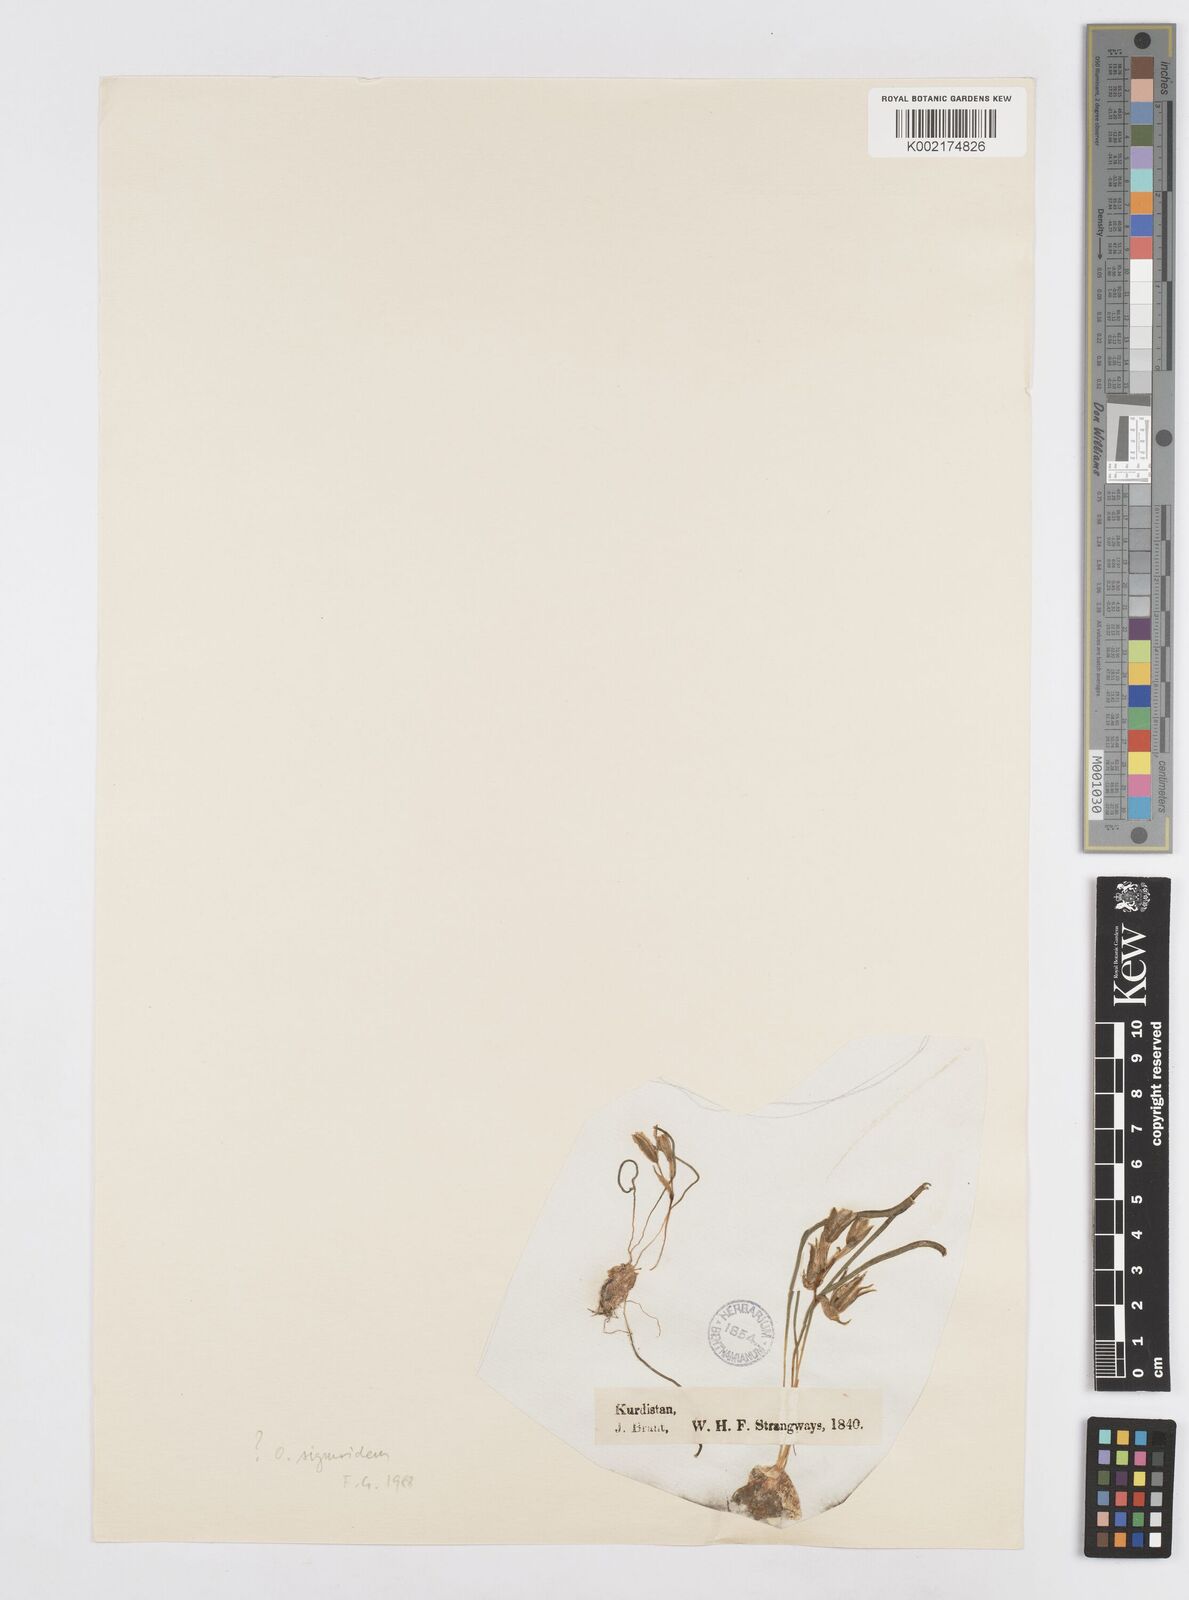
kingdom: Plantae
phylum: Tracheophyta
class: Liliopsida
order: Asparagales
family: Asparagaceae
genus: Ornithogalum
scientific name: Ornithogalum sigmoideum
